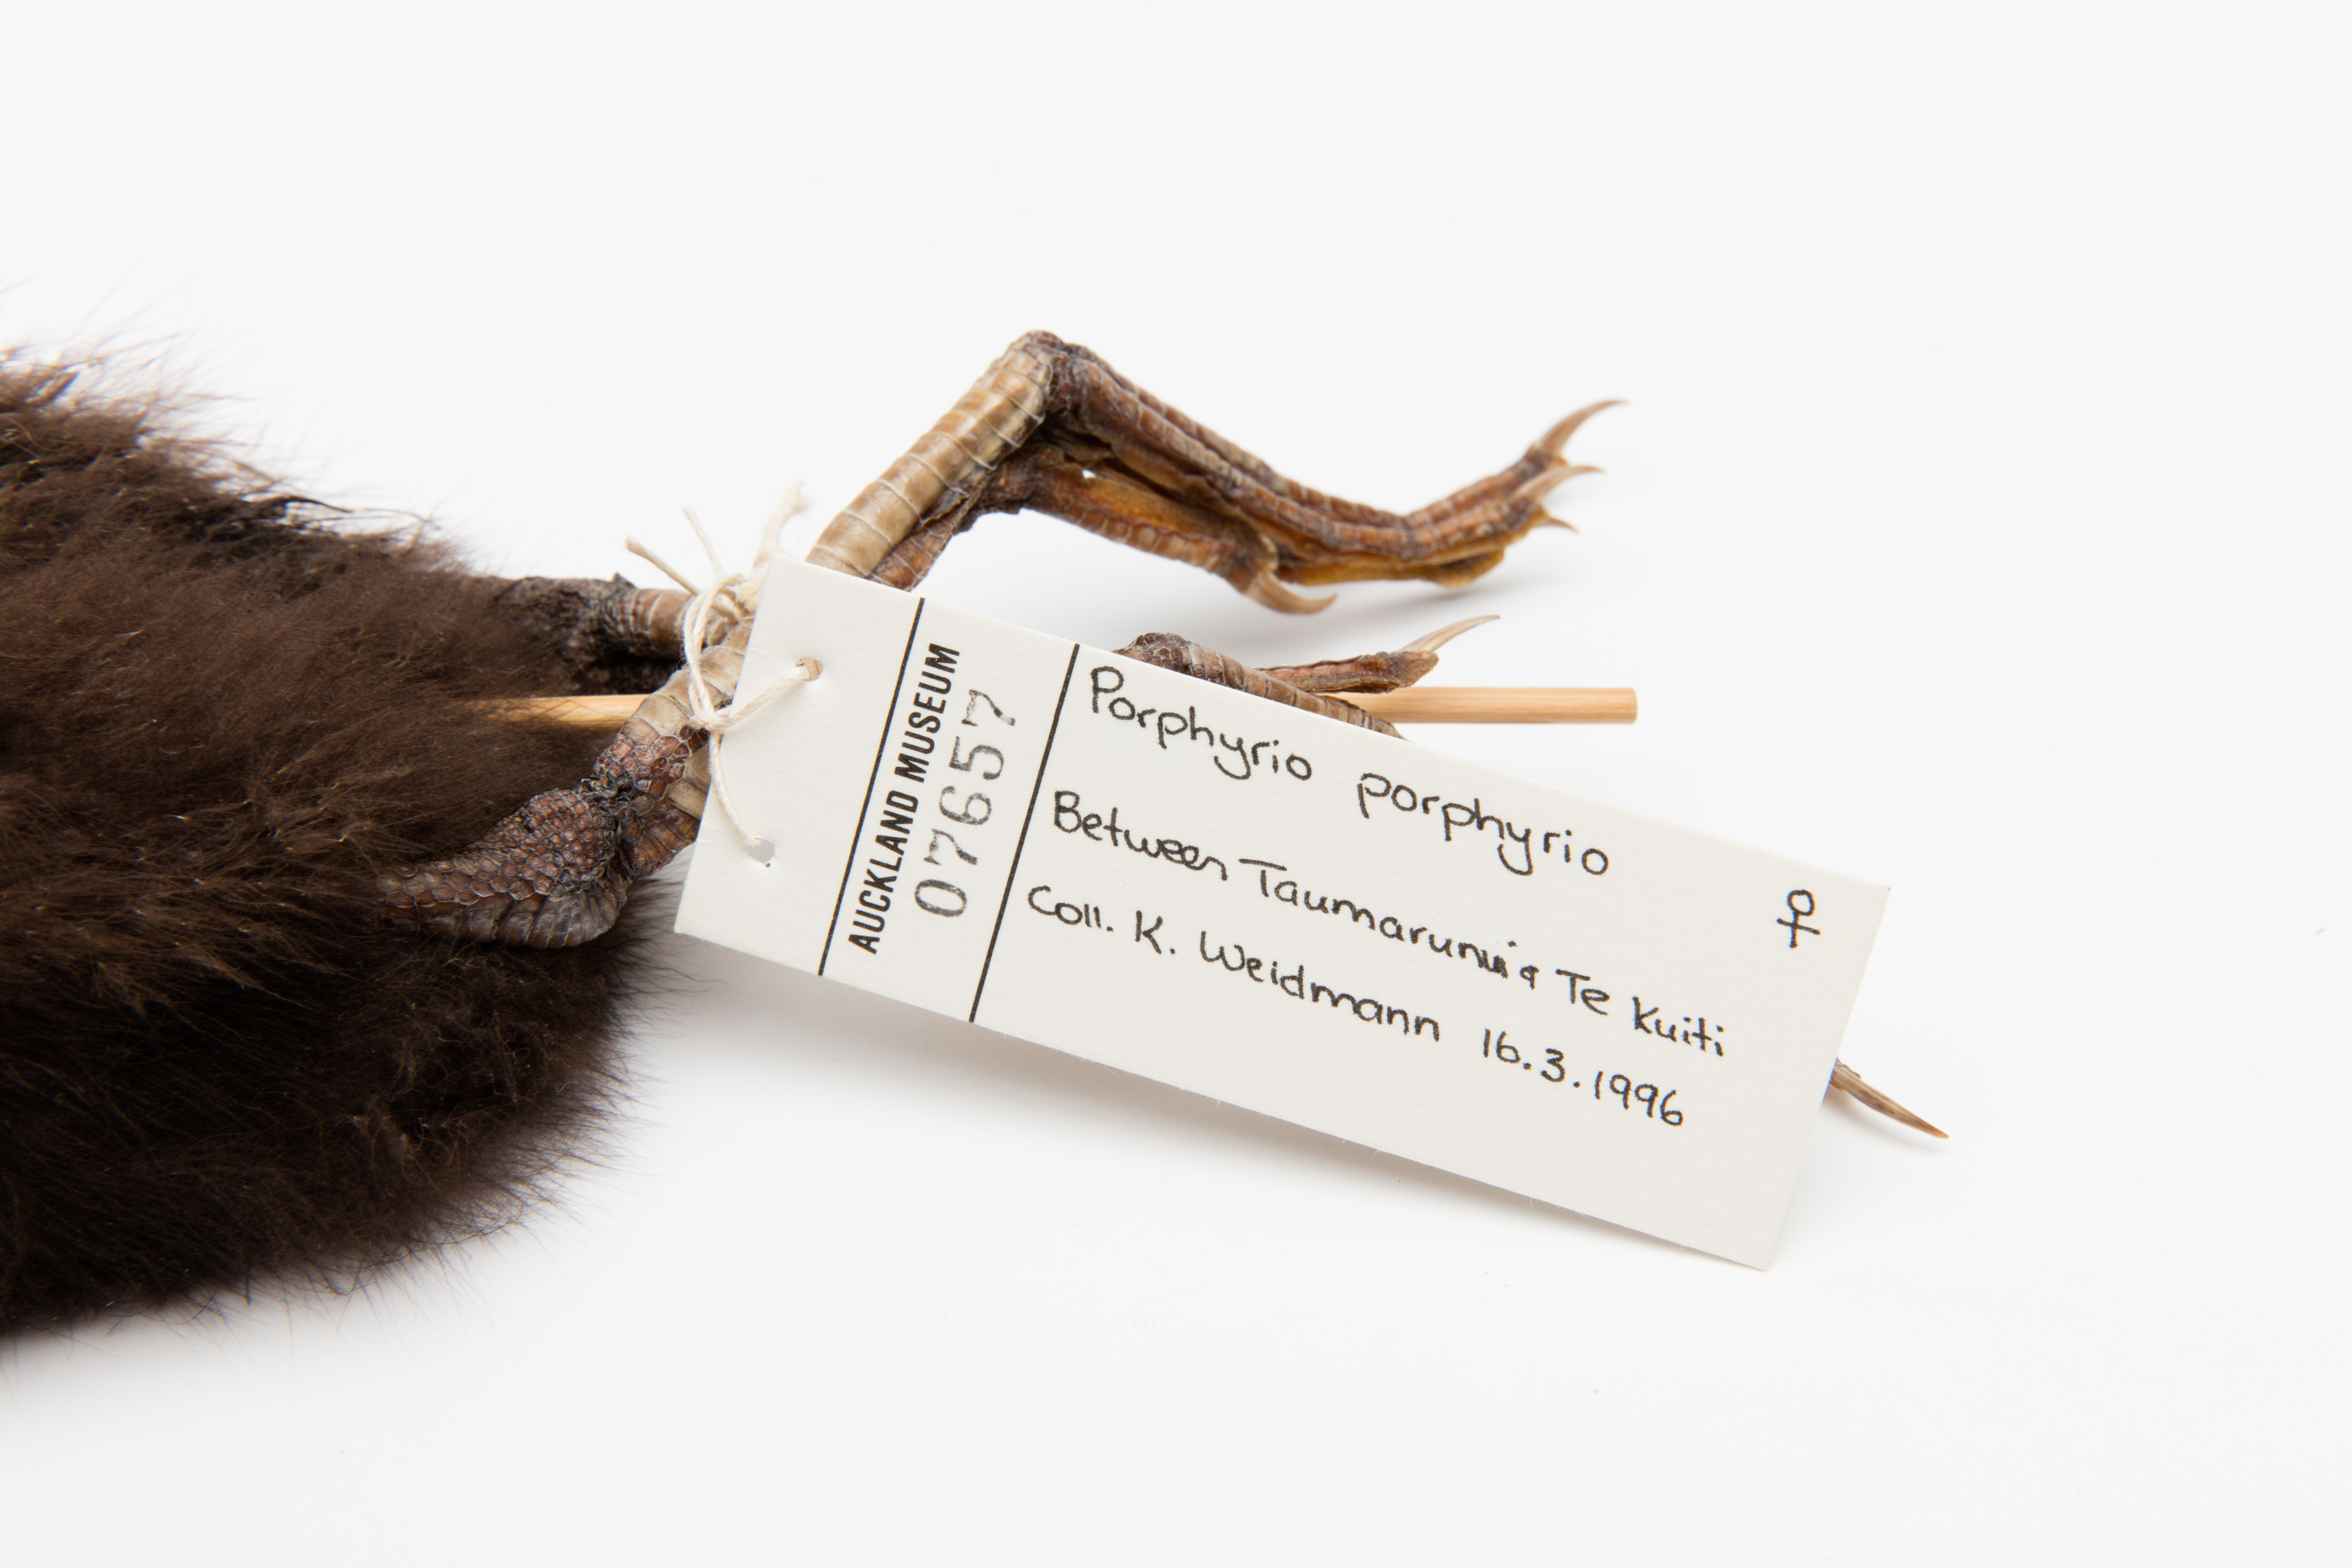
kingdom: Animalia
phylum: Chordata
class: Aves
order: Gruiformes
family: Rallidae
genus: Porphyrio
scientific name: Porphyrio melanotus
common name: Australasian swamphen
